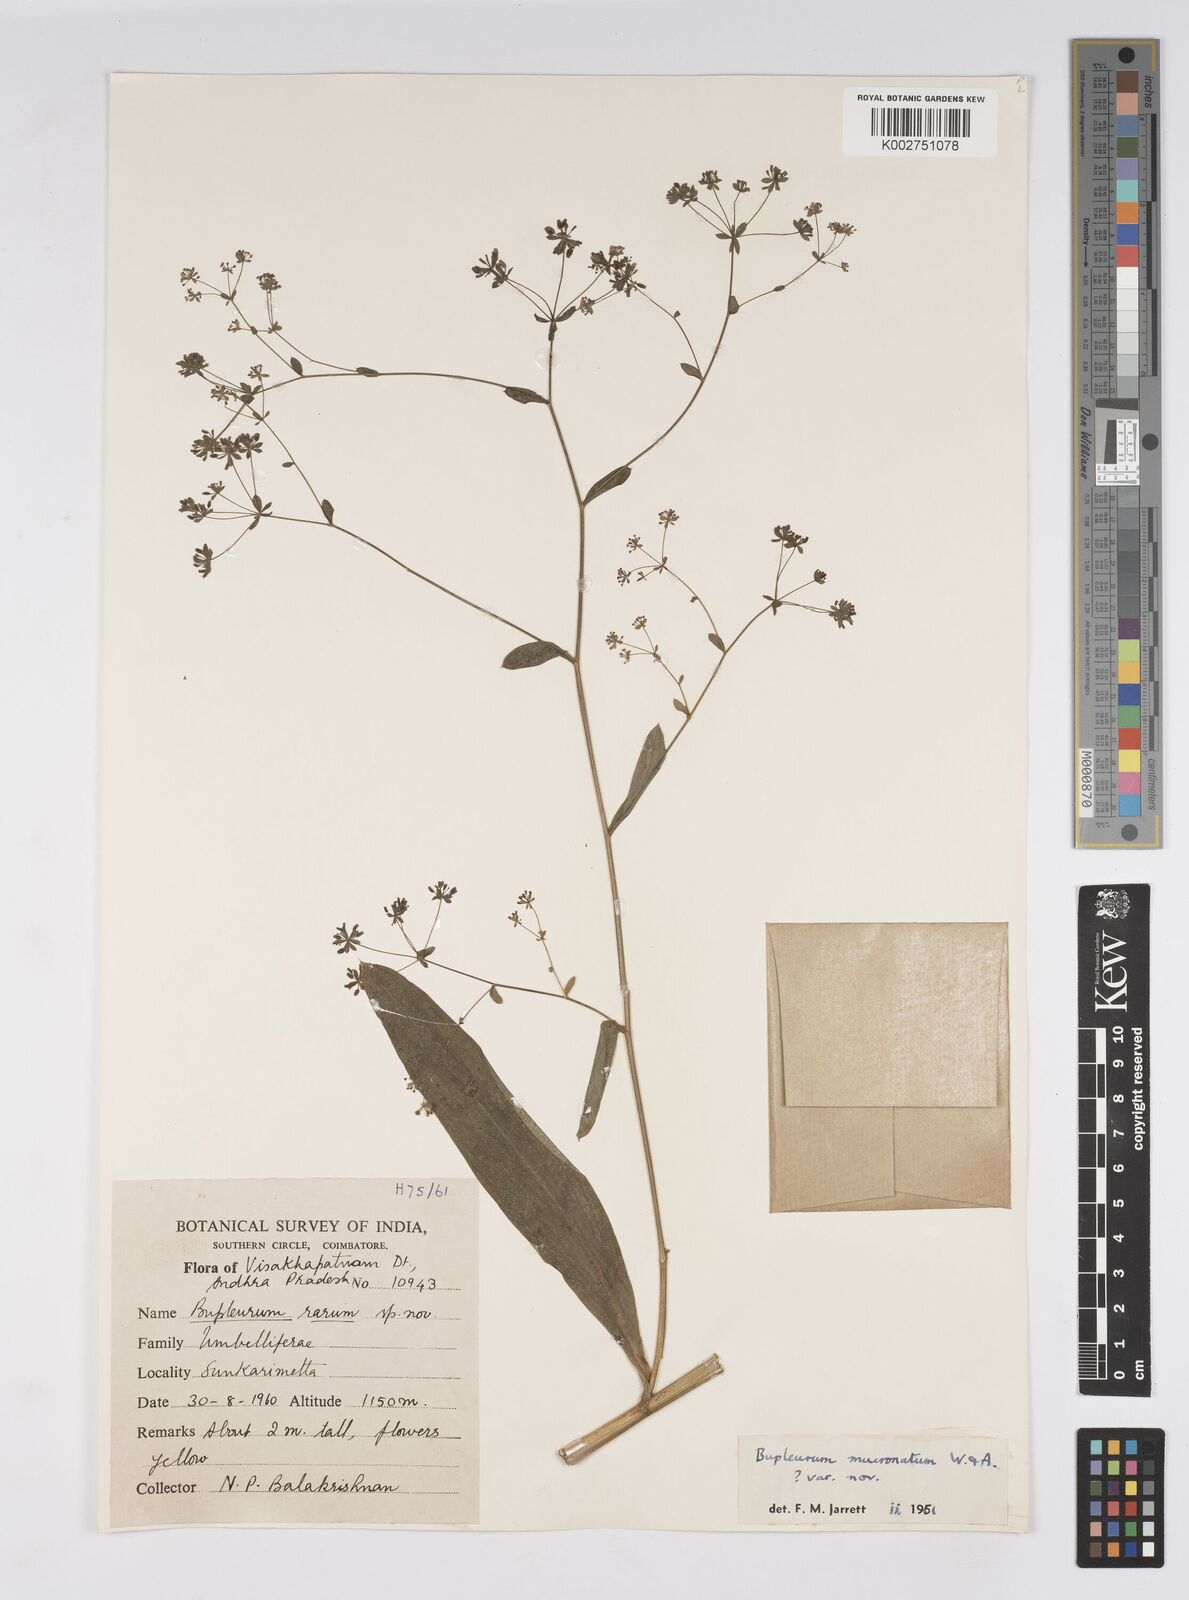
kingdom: Plantae
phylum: Tracheophyta
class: Magnoliopsida
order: Apiales
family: Apiaceae
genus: Bupleurum
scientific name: Bupleurum ramosissimum
